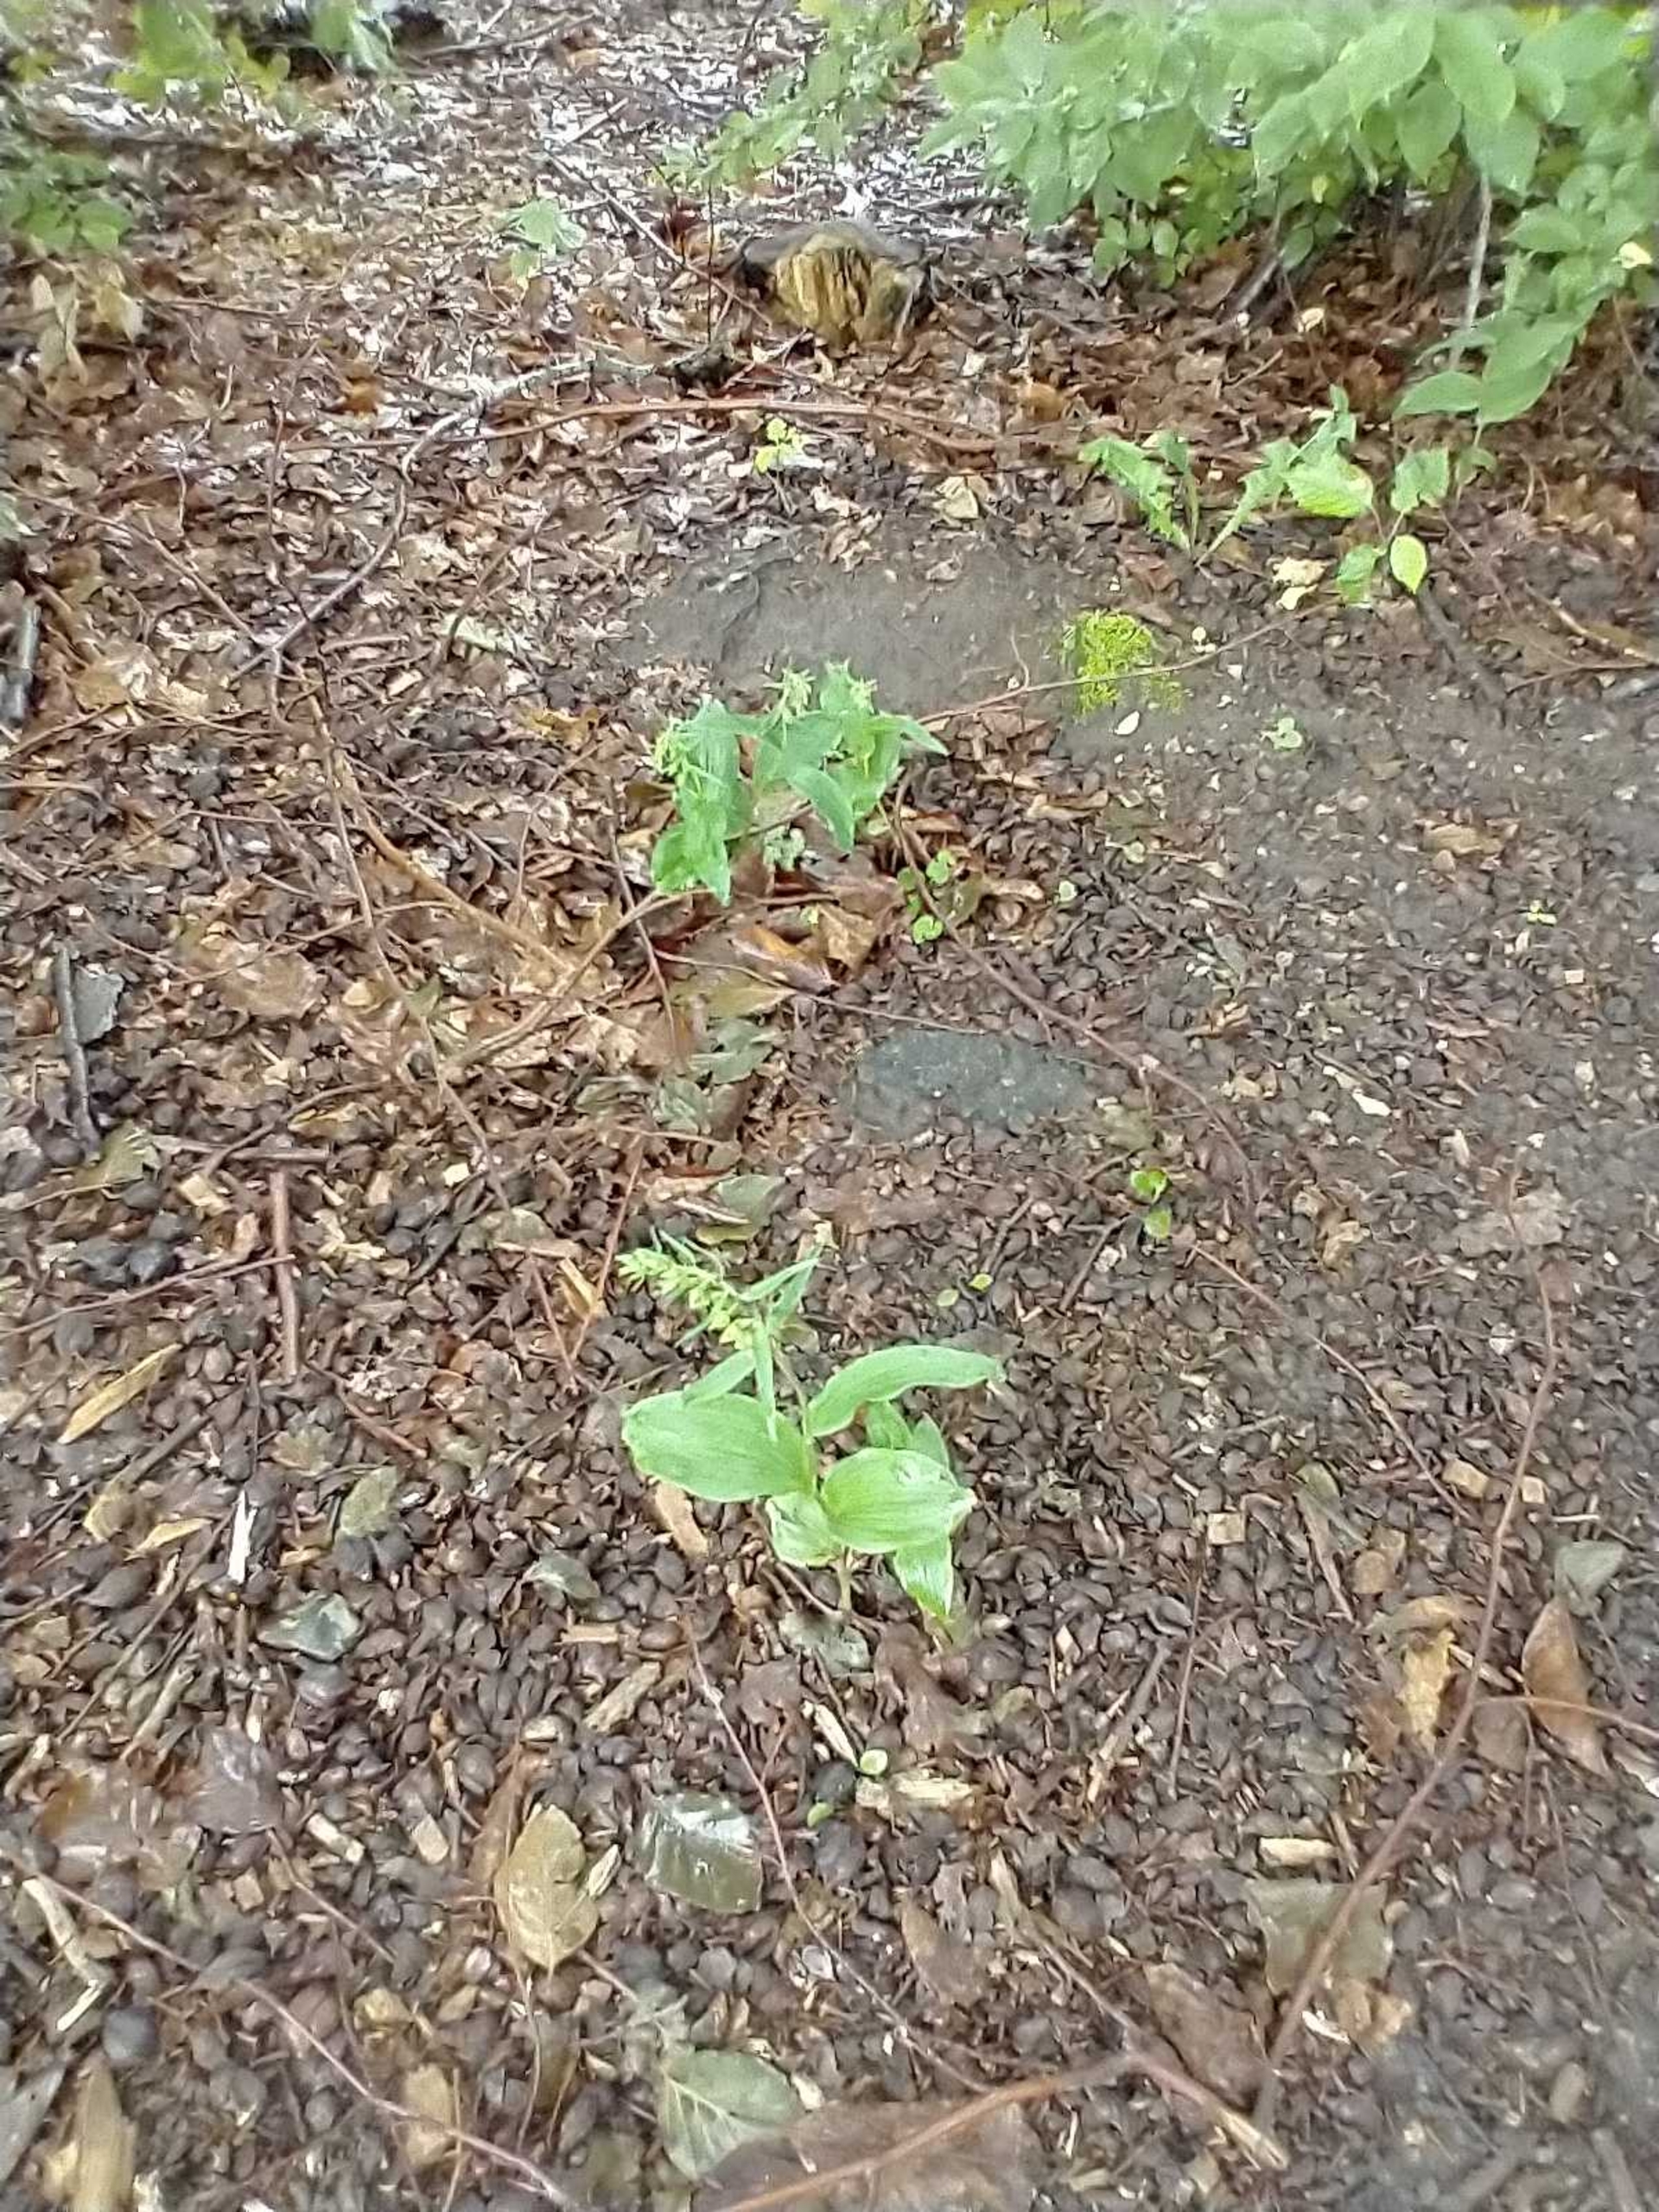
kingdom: Plantae
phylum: Tracheophyta
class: Liliopsida
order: Asparagales
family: Orchidaceae
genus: Epipactis
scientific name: Epipactis helleborine
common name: Skov-hullæbe
